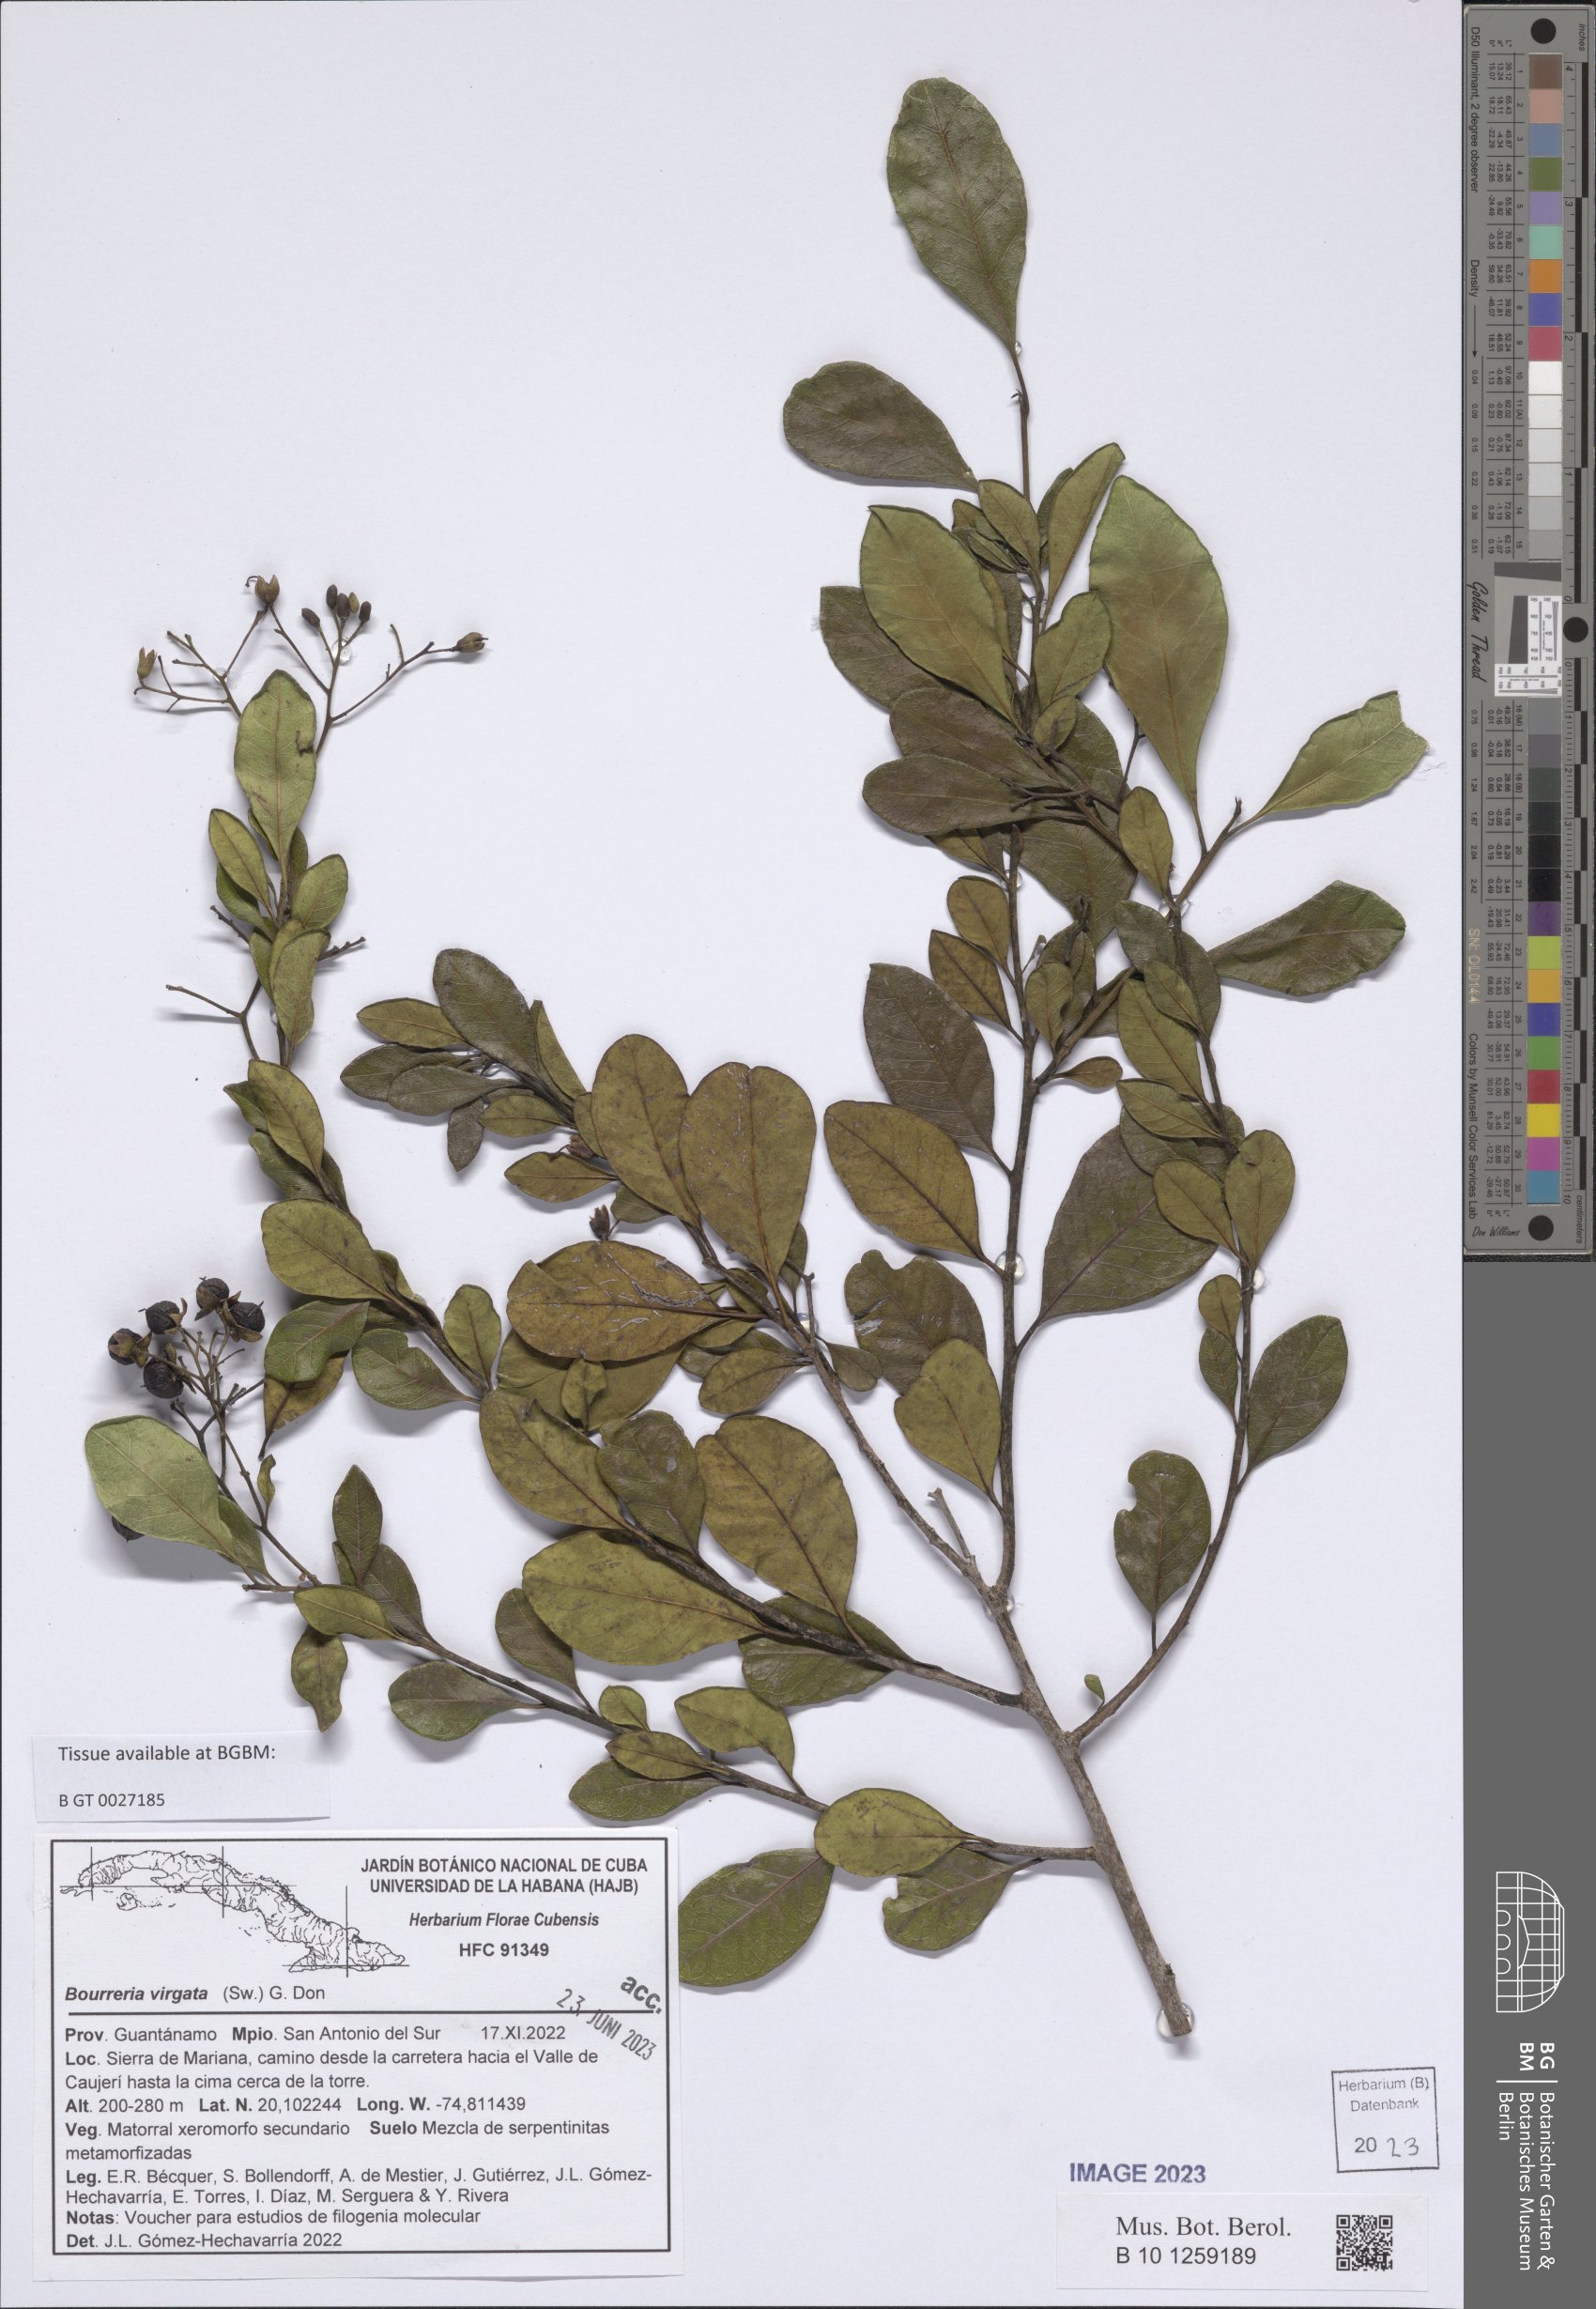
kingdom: Plantae
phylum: Tracheophyta
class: Magnoliopsida
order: Boraginales
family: Ehretiaceae
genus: Bourreria
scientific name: Bourreria virgata
